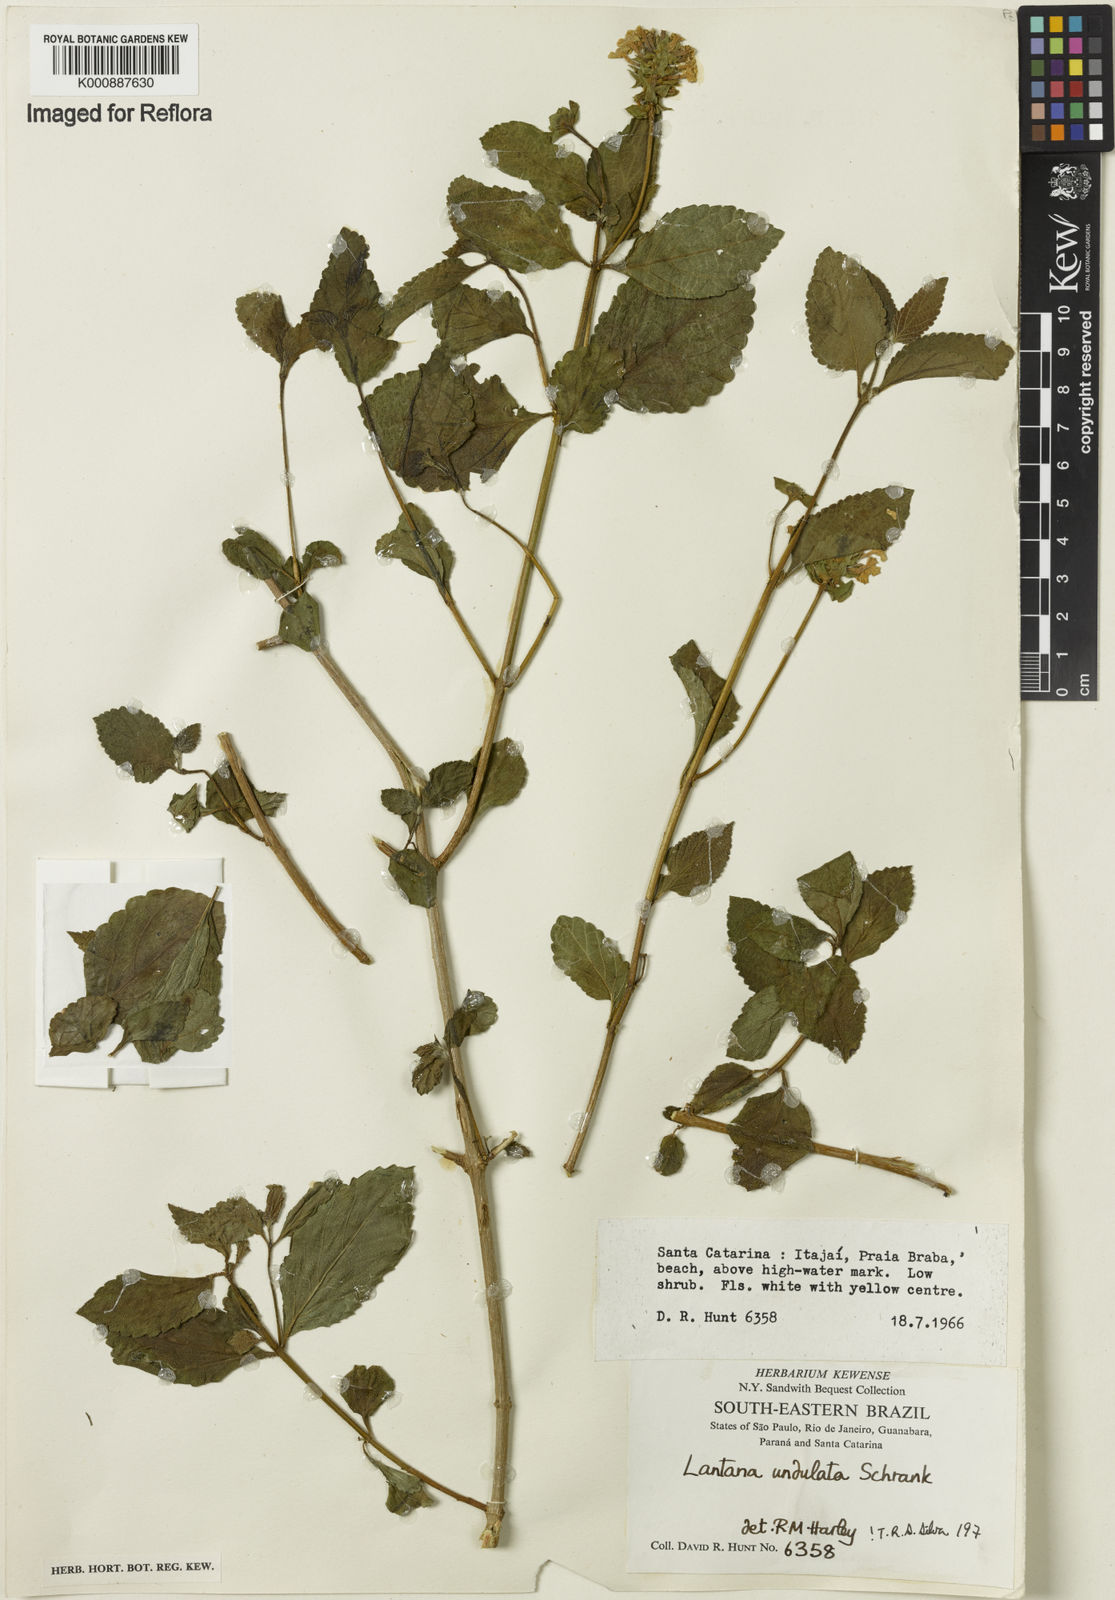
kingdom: Plantae
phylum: Tracheophyta
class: Magnoliopsida
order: Lamiales
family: Verbenaceae
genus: Lantana
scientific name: Lantana undulata
